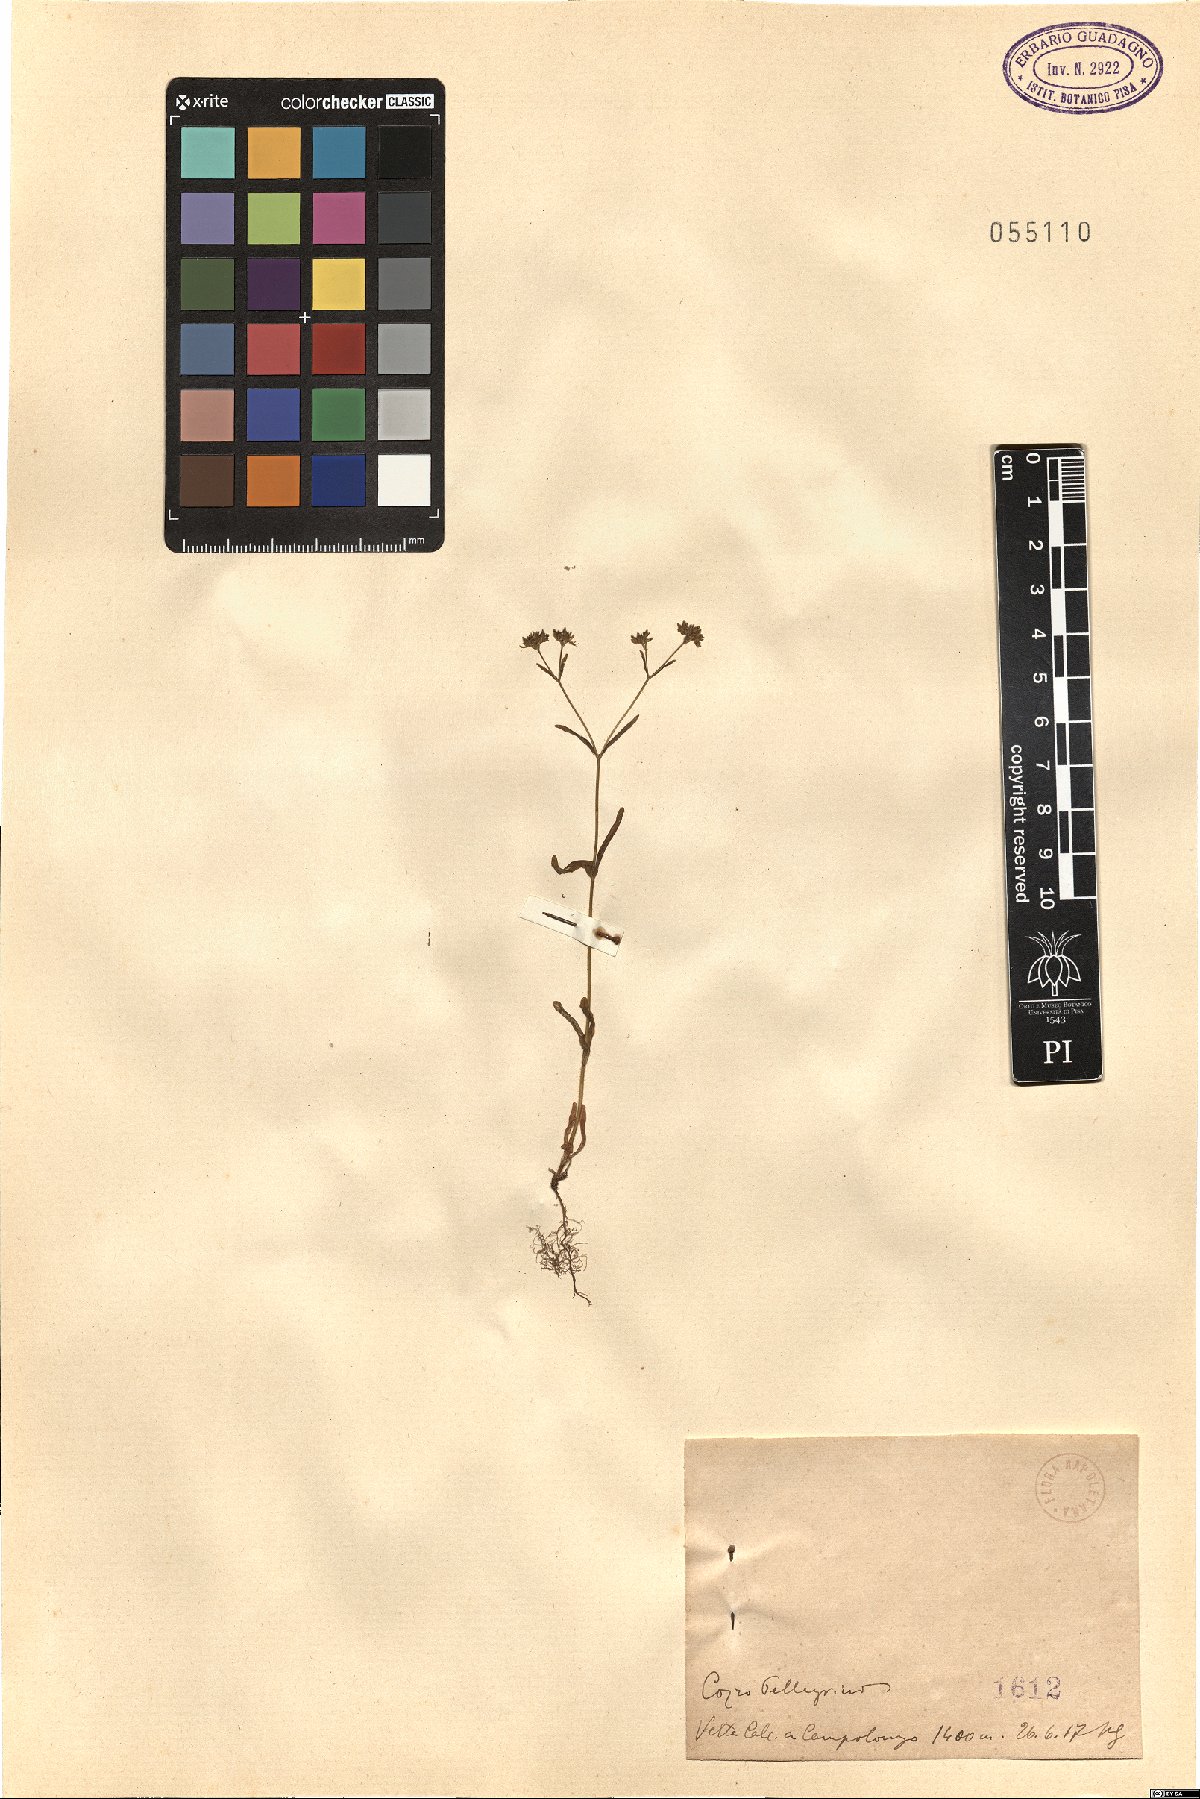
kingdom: Plantae
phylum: Tracheophyta
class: Magnoliopsida
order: Dipsacales
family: Caprifoliaceae
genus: Valerianella
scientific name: Valerianella
